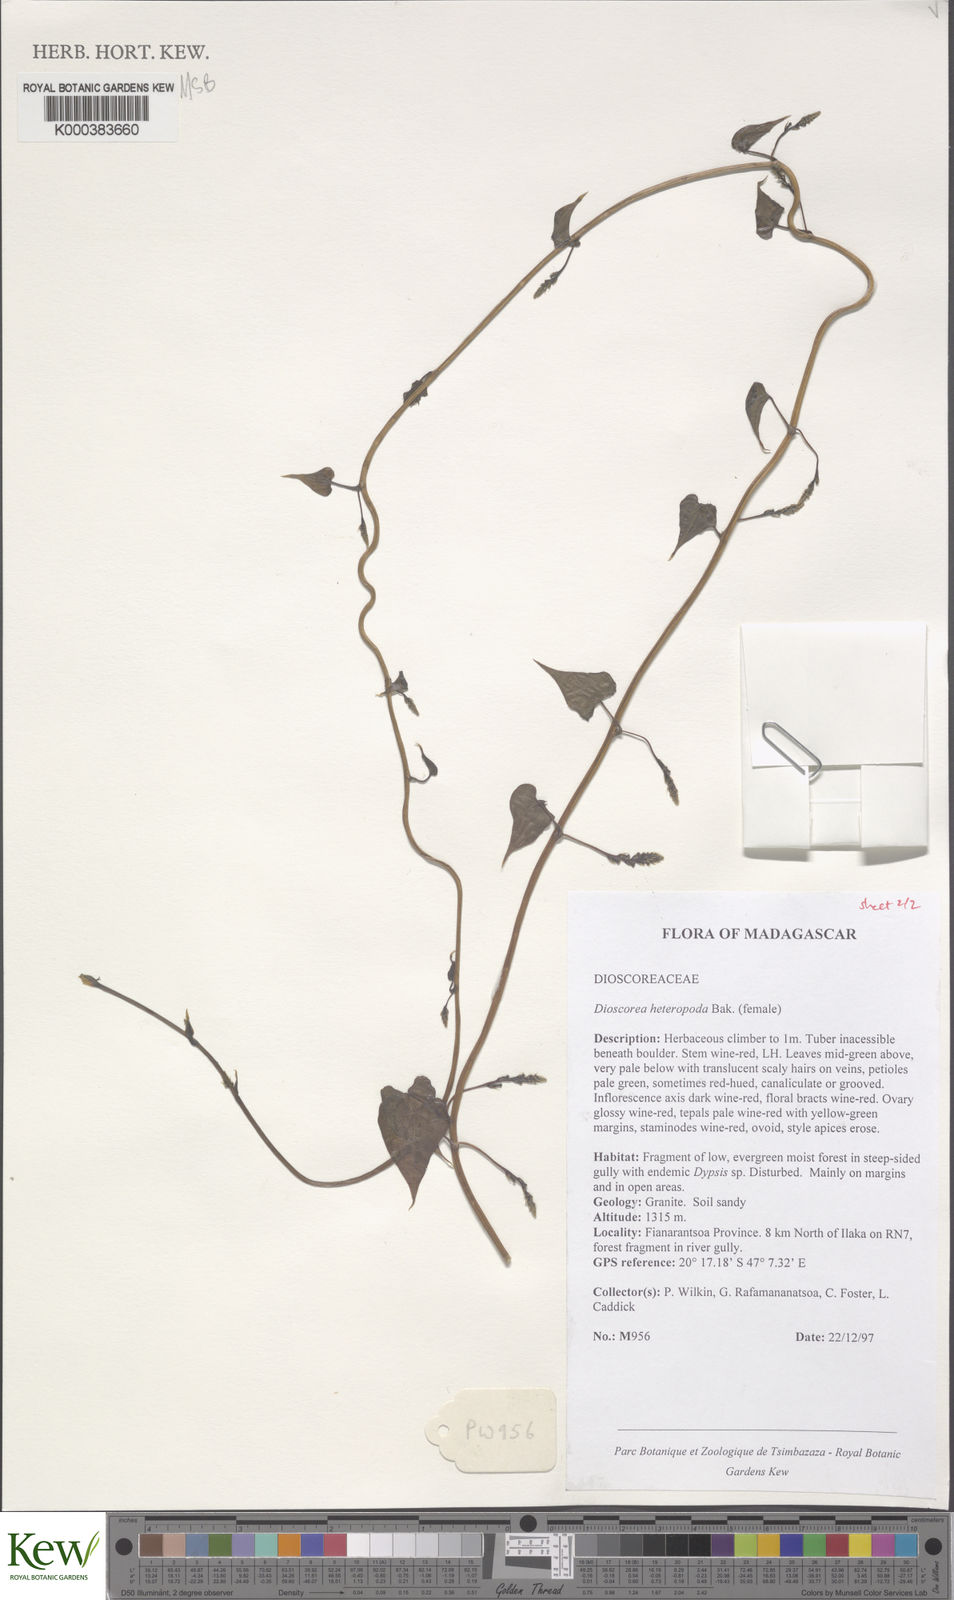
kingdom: Plantae
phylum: Tracheophyta
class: Liliopsida
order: Dioscoreales
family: Dioscoreaceae
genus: Dioscorea
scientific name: Dioscorea heteropoda
